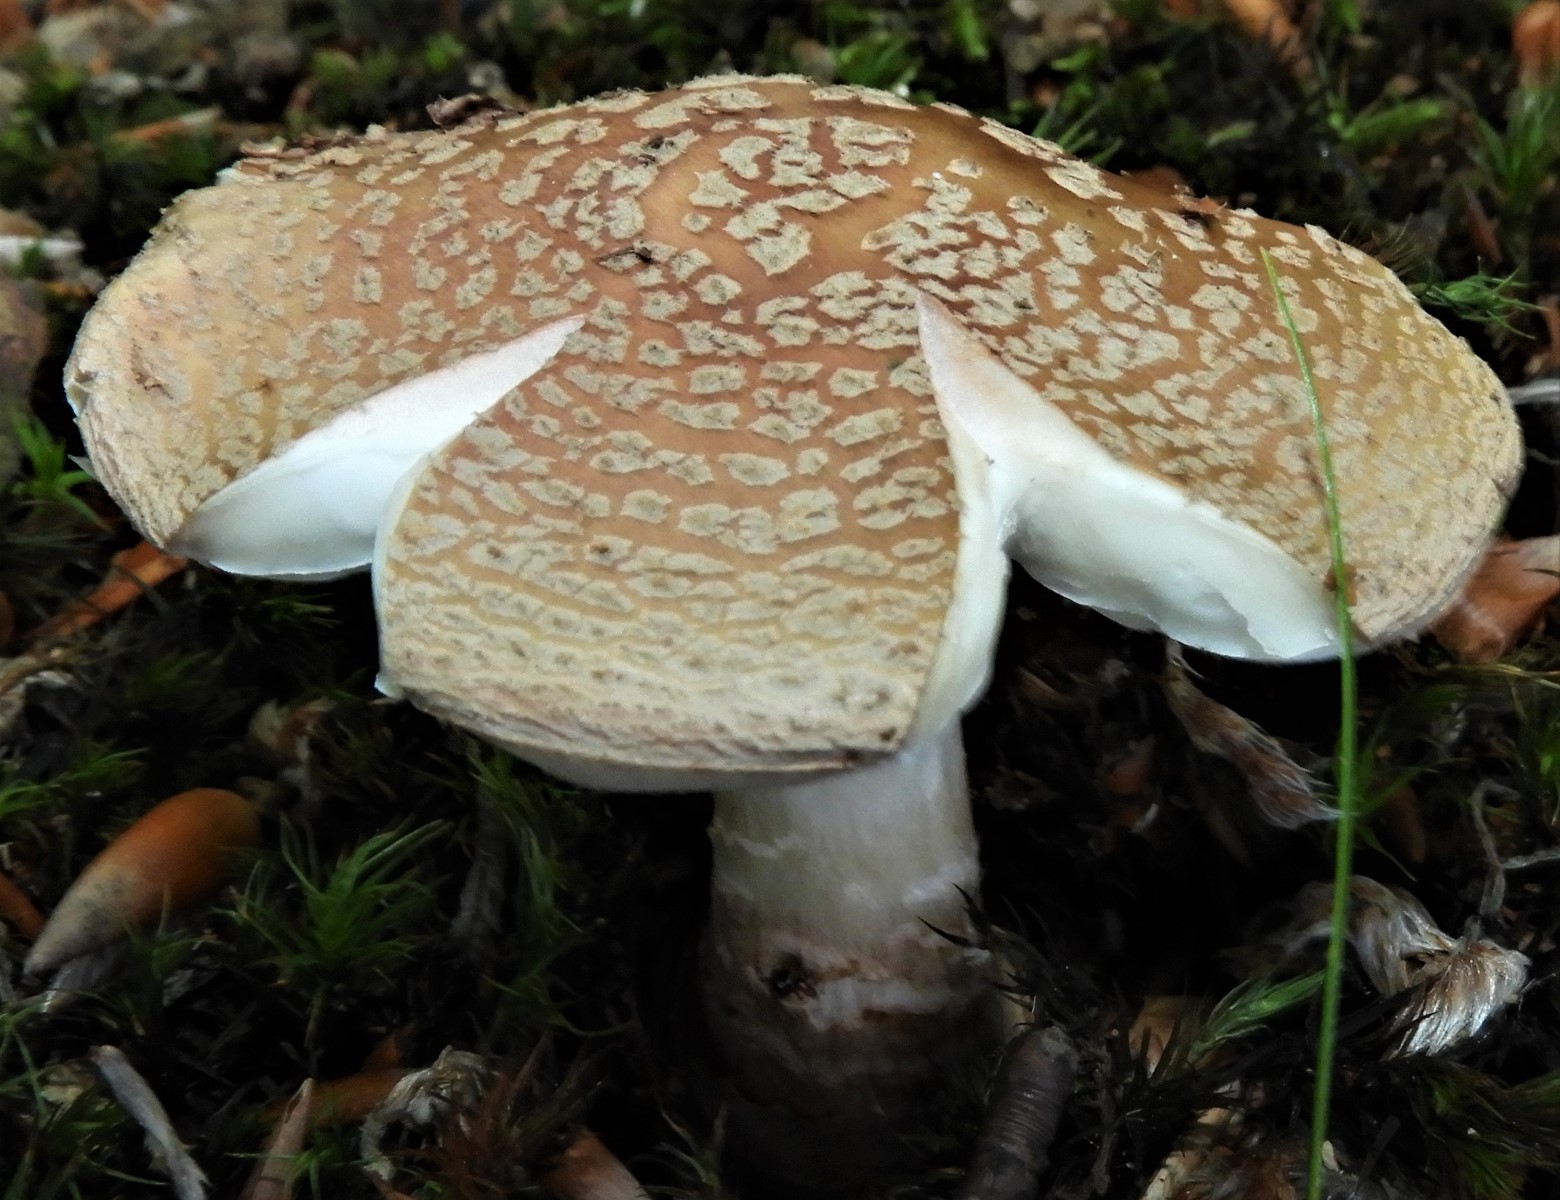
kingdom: Fungi
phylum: Basidiomycota
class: Agaricomycetes
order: Agaricales
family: Amanitaceae
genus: Amanita
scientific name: Amanita rubescens
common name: rødmende fluesvamp
